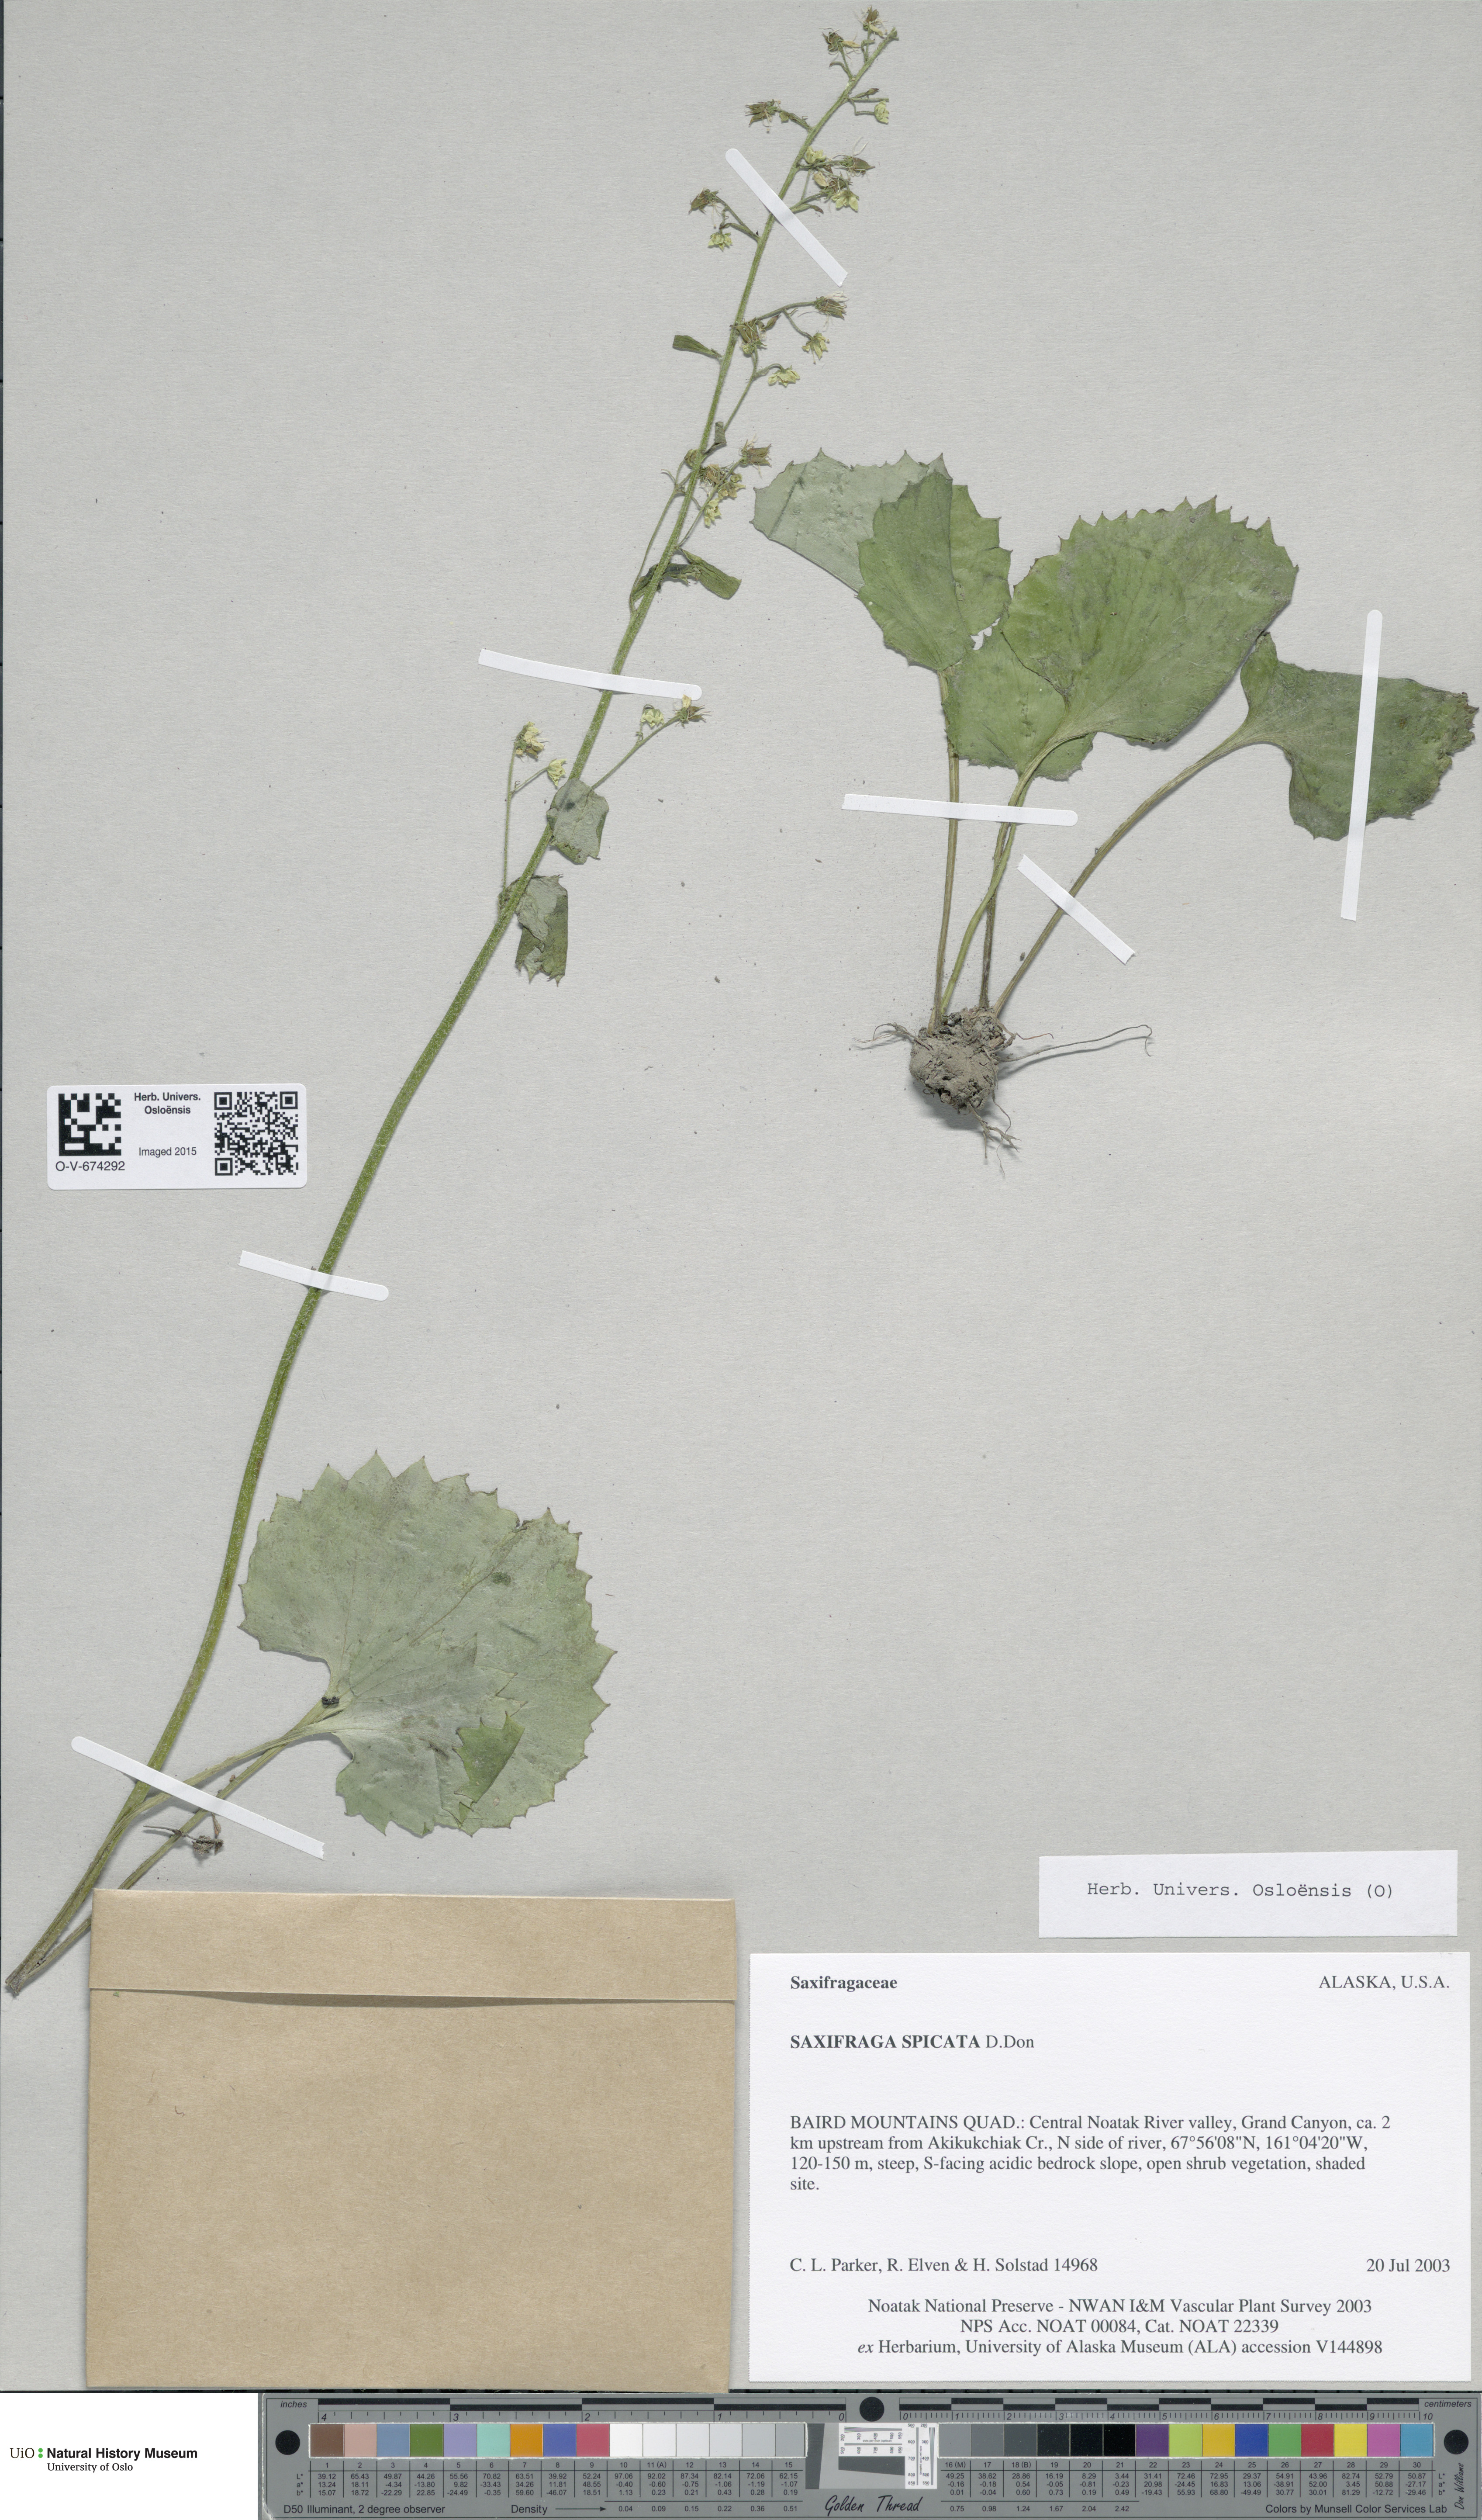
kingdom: Plantae
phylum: Tracheophyta
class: Magnoliopsida
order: Saxifragales
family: Saxifragaceae
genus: Micranthes
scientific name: Micranthes spicata
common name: Spiked saxifrage
